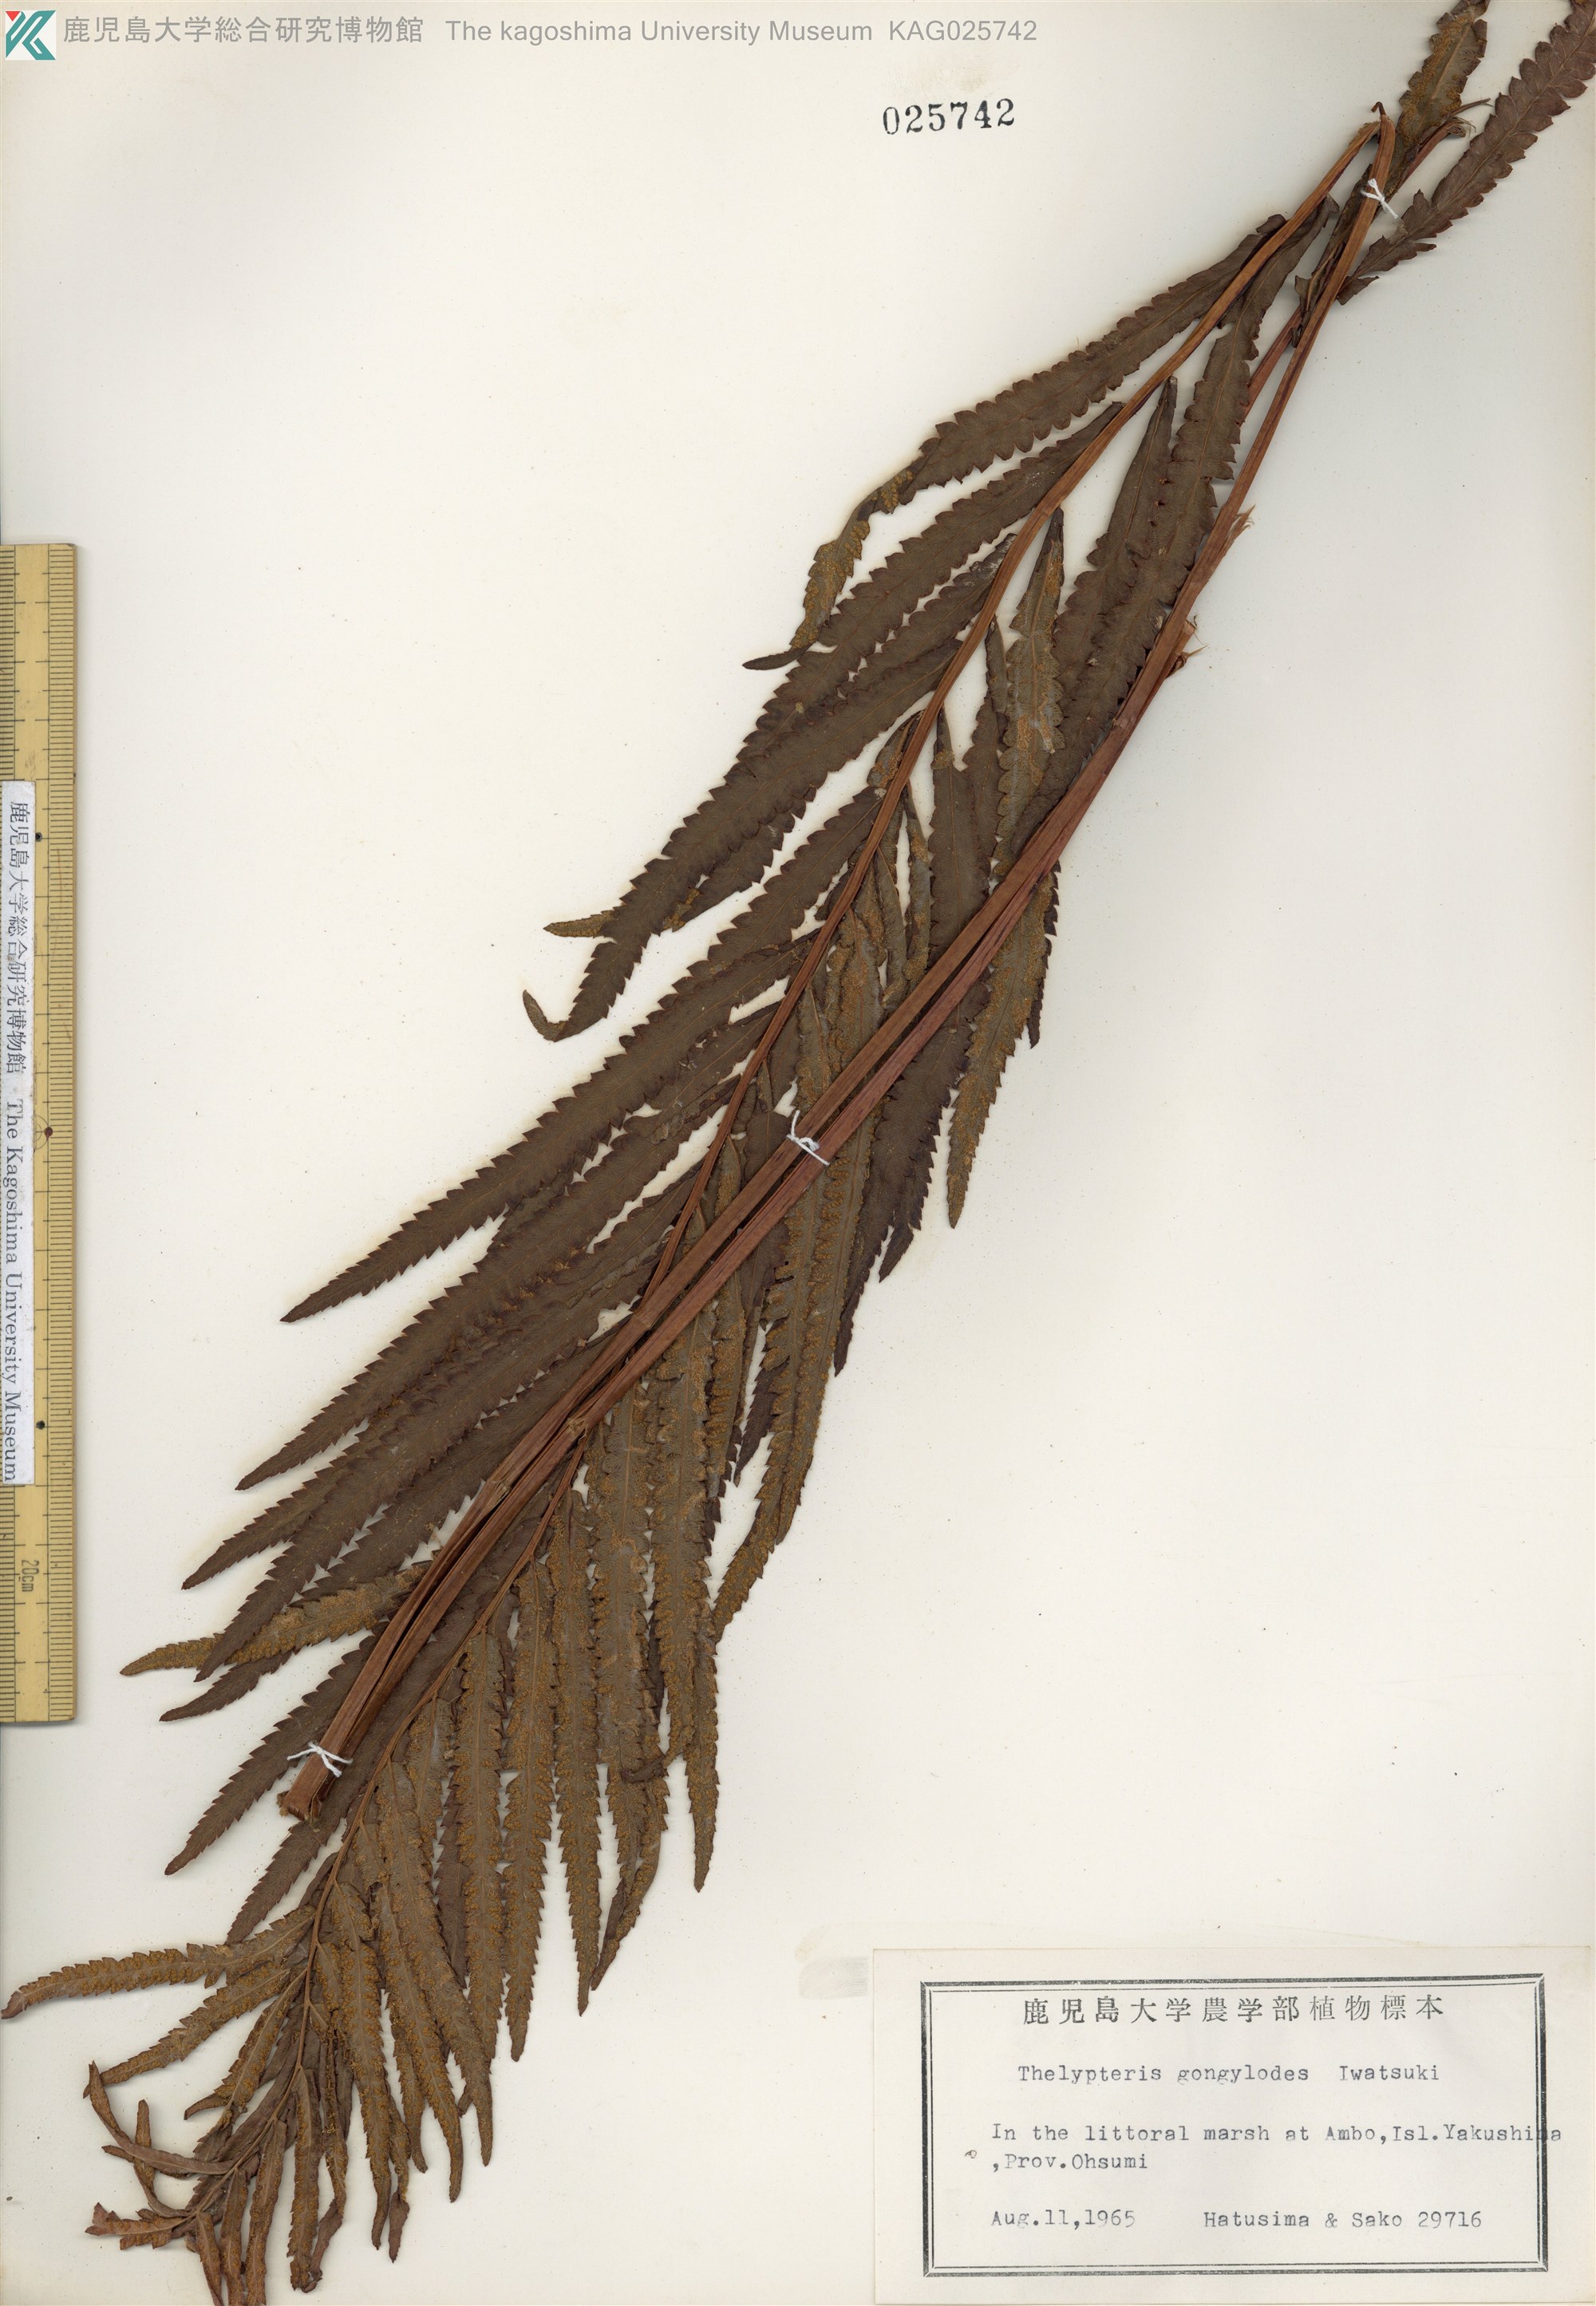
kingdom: Plantae
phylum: Tracheophyta
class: Polypodiopsida
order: Polypodiales
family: Thelypteridaceae
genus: Cyclosorus
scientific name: Cyclosorus interruptus
